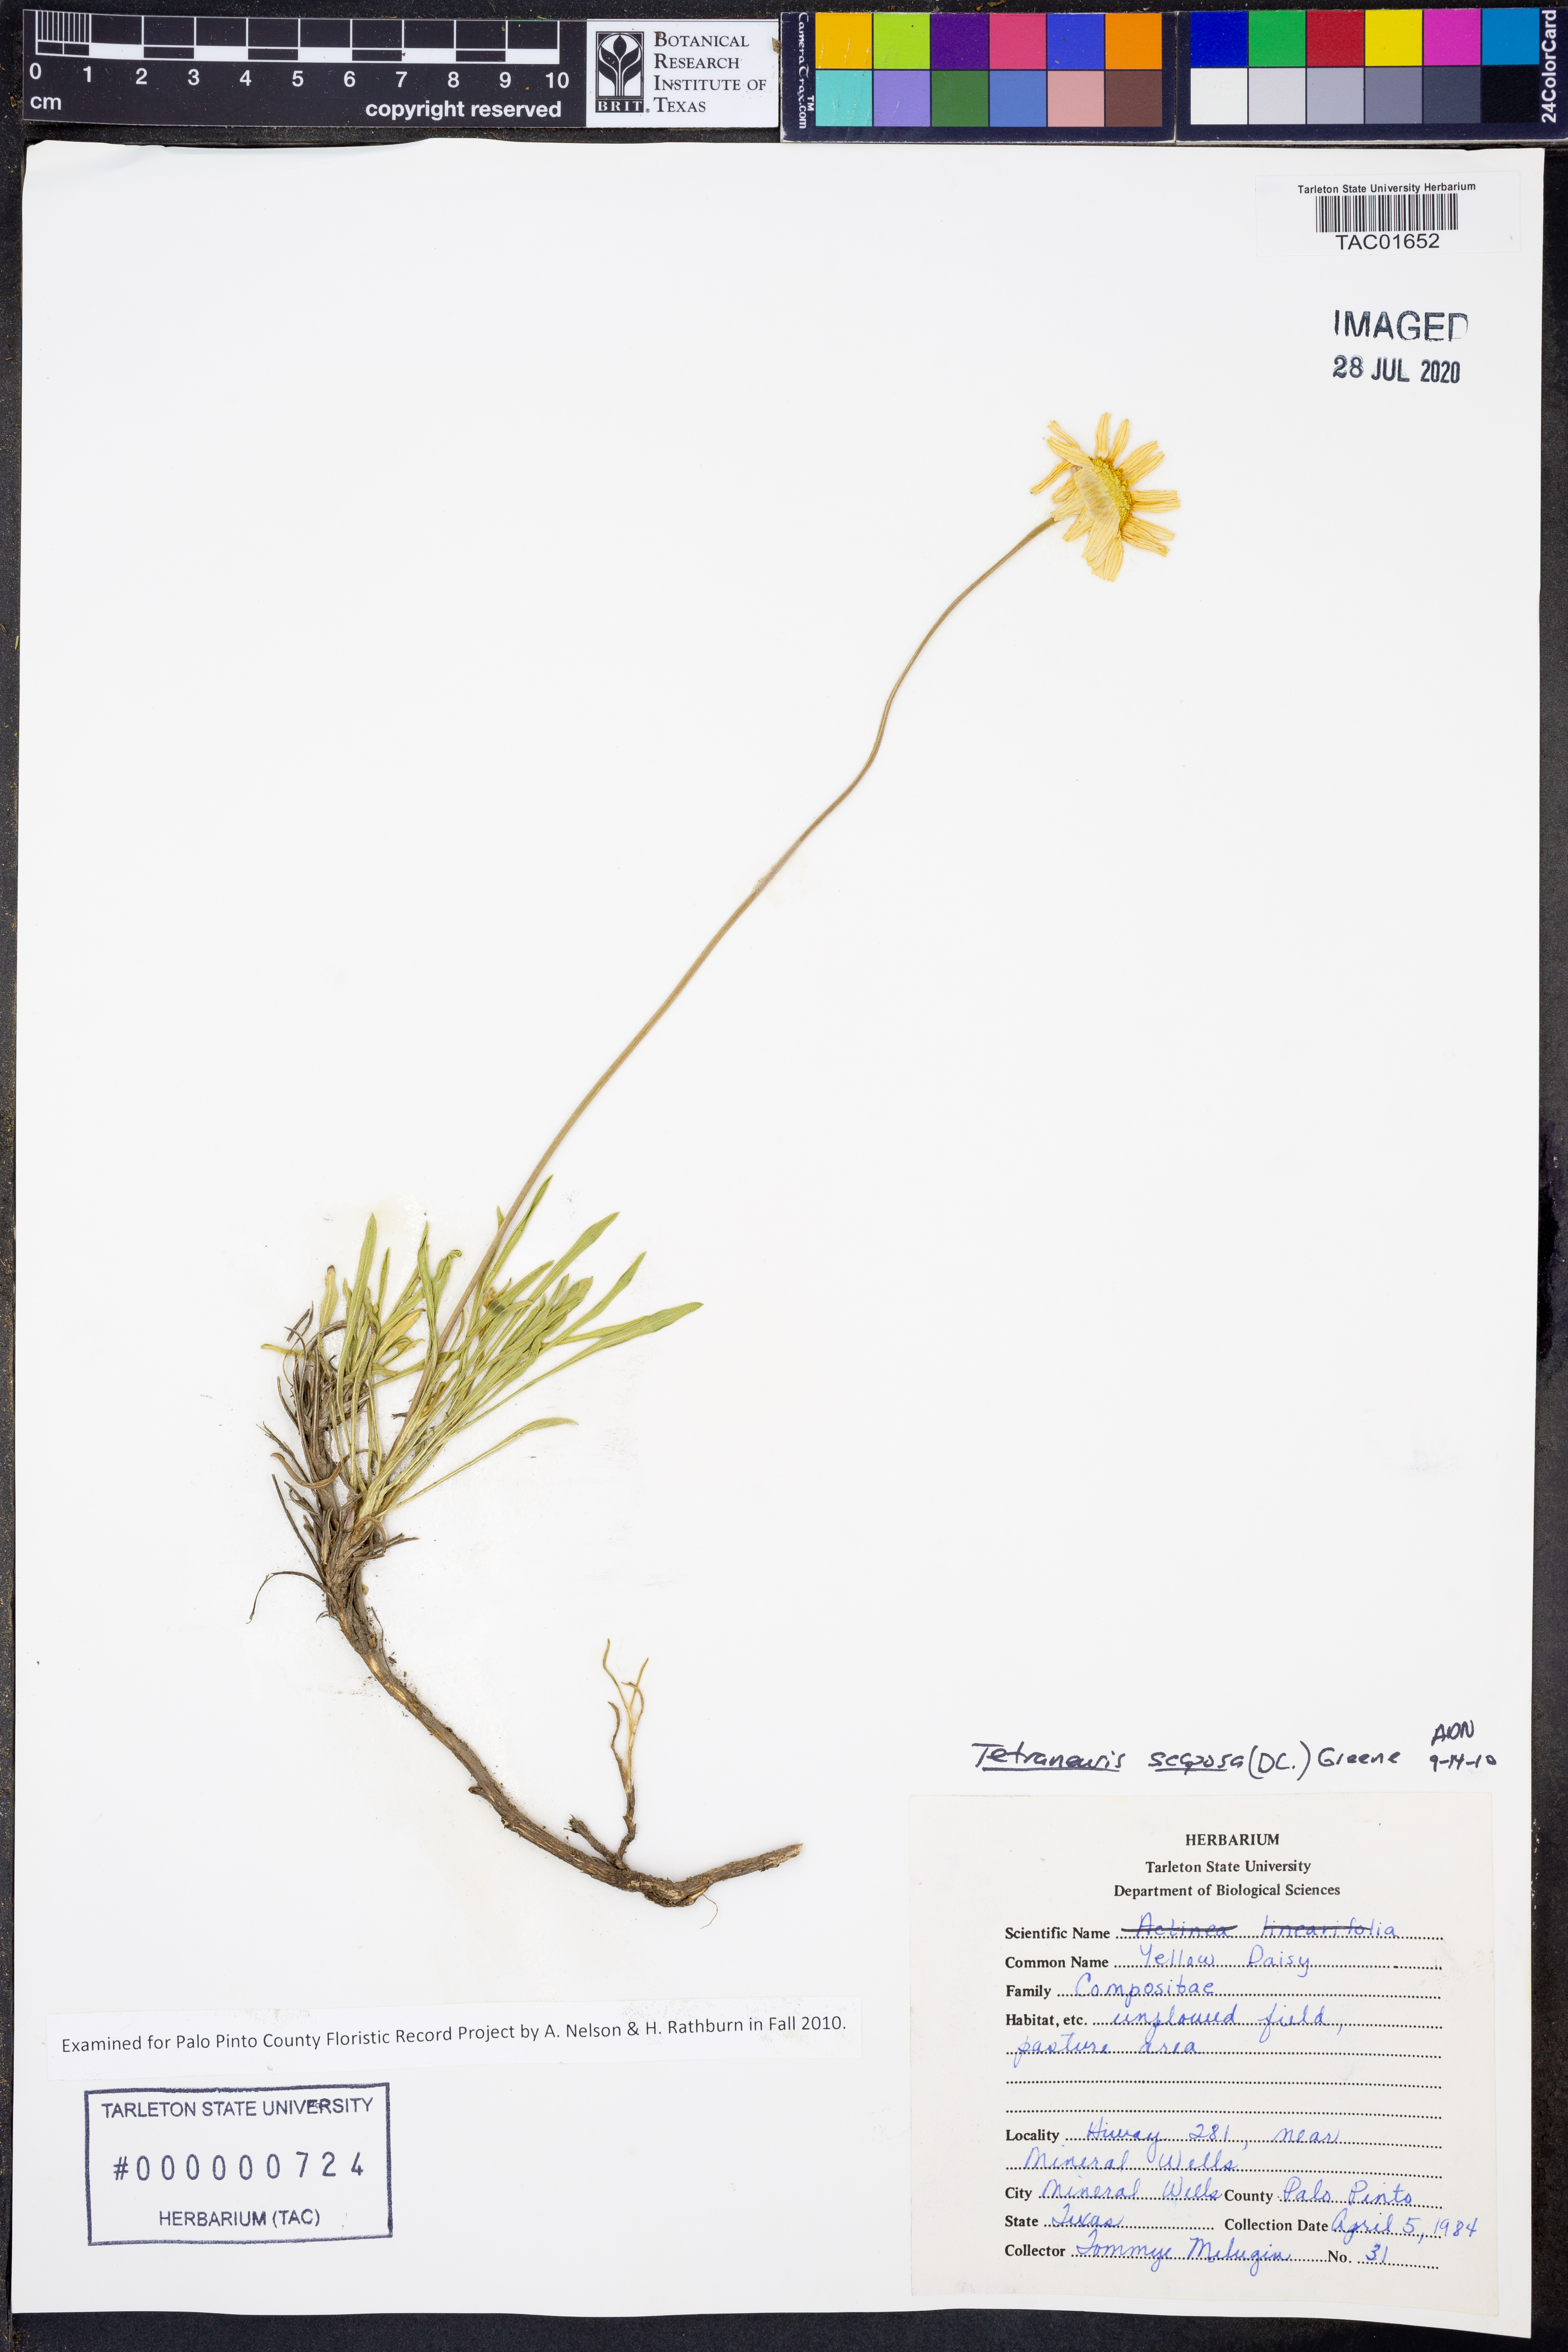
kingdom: Plantae
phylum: Tracheophyta
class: Magnoliopsida
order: Asterales
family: Asteraceae
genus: Tetraneuris
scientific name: Tetraneuris scaposa
